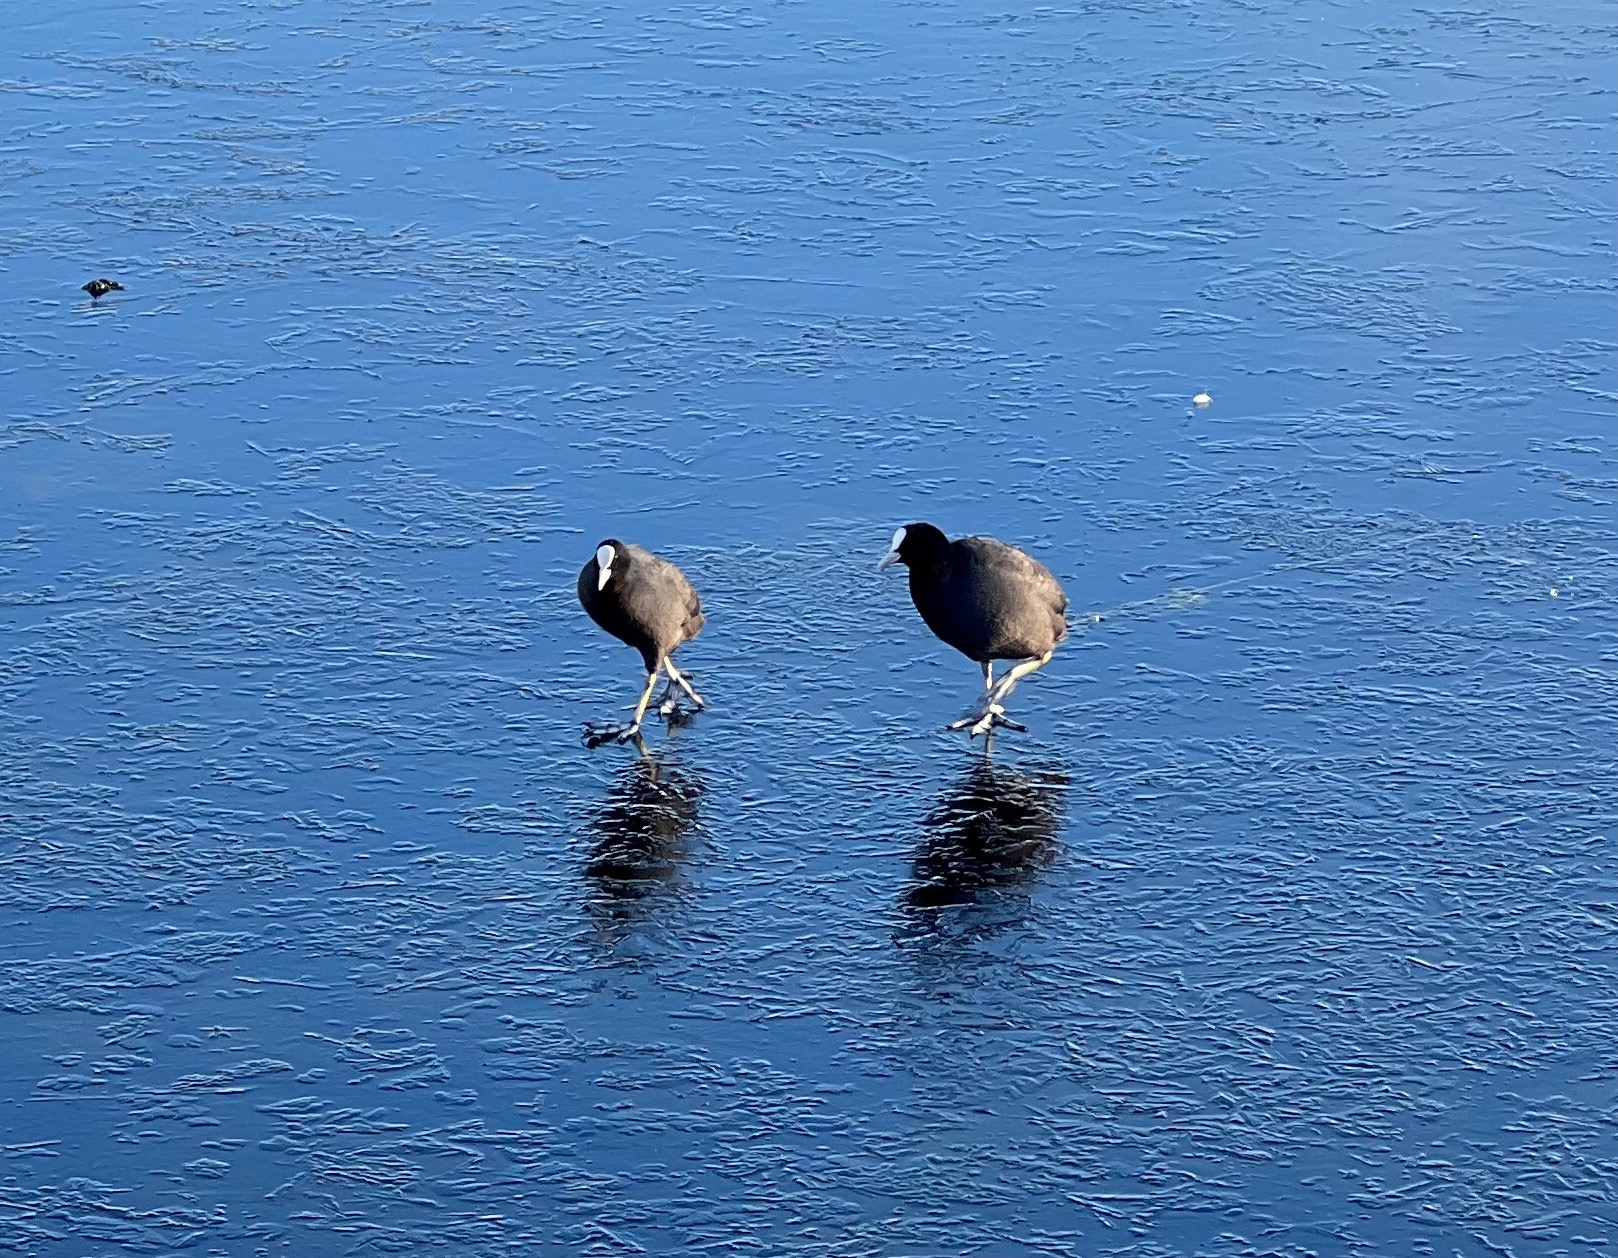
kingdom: Animalia
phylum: Chordata
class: Aves
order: Gruiformes
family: Rallidae
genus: Fulica
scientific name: Fulica atra
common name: Blishøne
